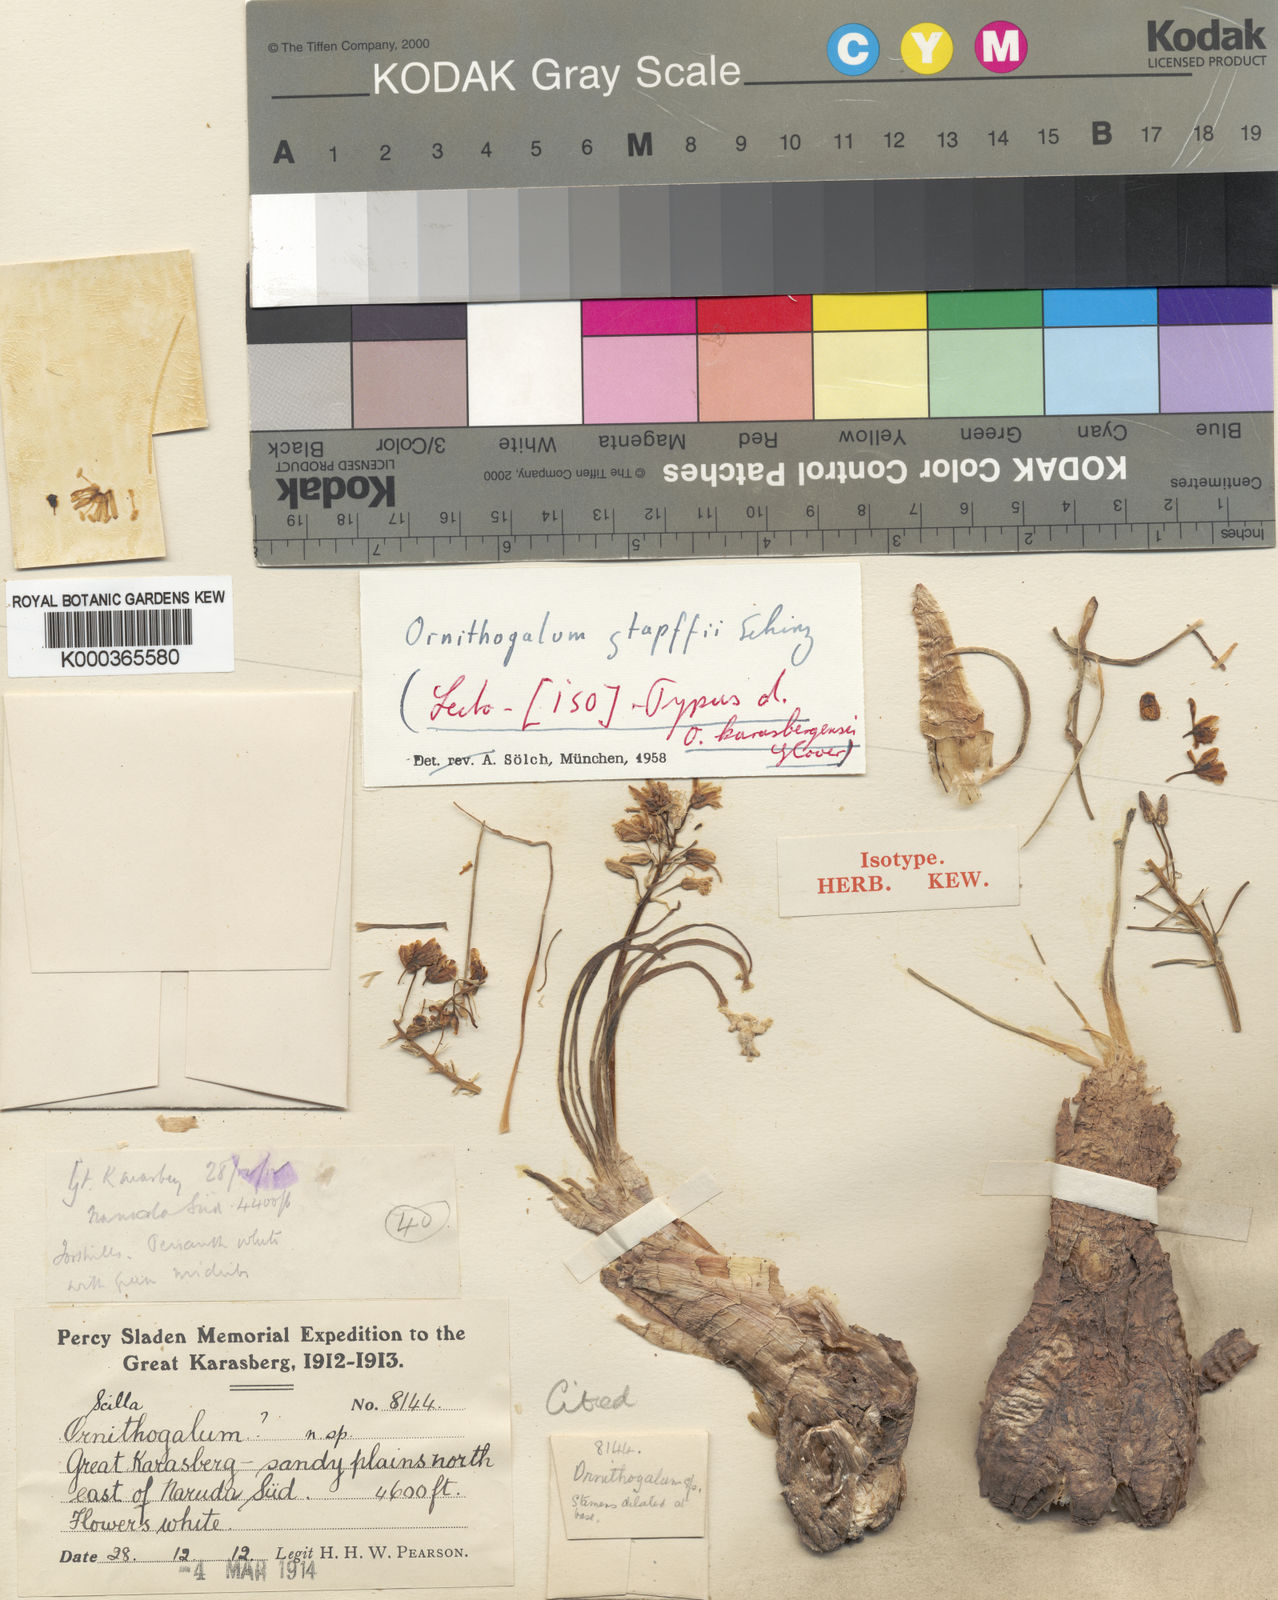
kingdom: Plantae
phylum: Tracheophyta
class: Liliopsida
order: Asparagales
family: Asparagaceae
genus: Albuca
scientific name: Albuca stapffii
